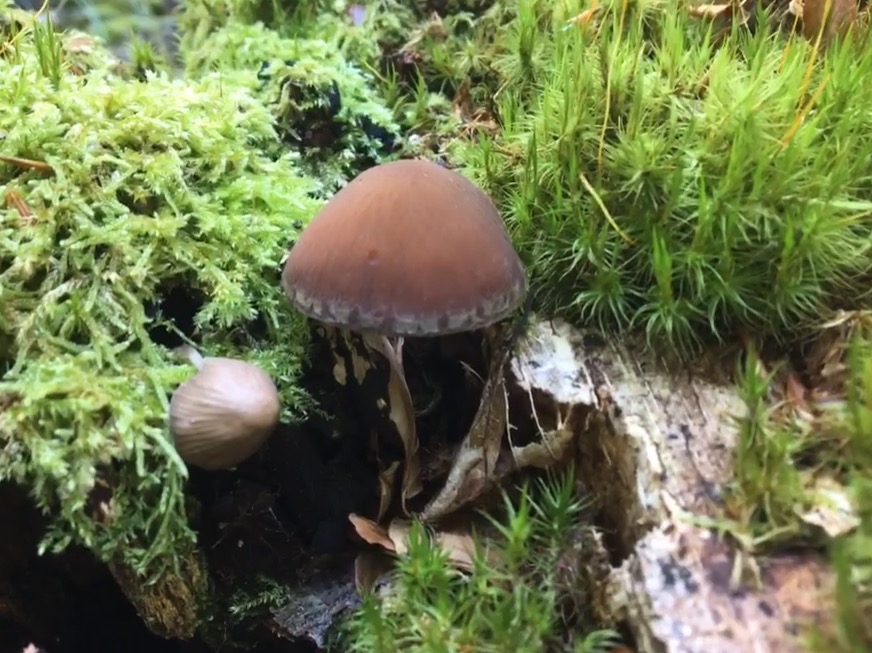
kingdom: Fungi
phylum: Basidiomycota
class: Agaricomycetes
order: Agaricales
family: Psathyrellaceae
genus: Psathyrella
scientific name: Psathyrella piluliformis
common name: lysstokket mørkhat
